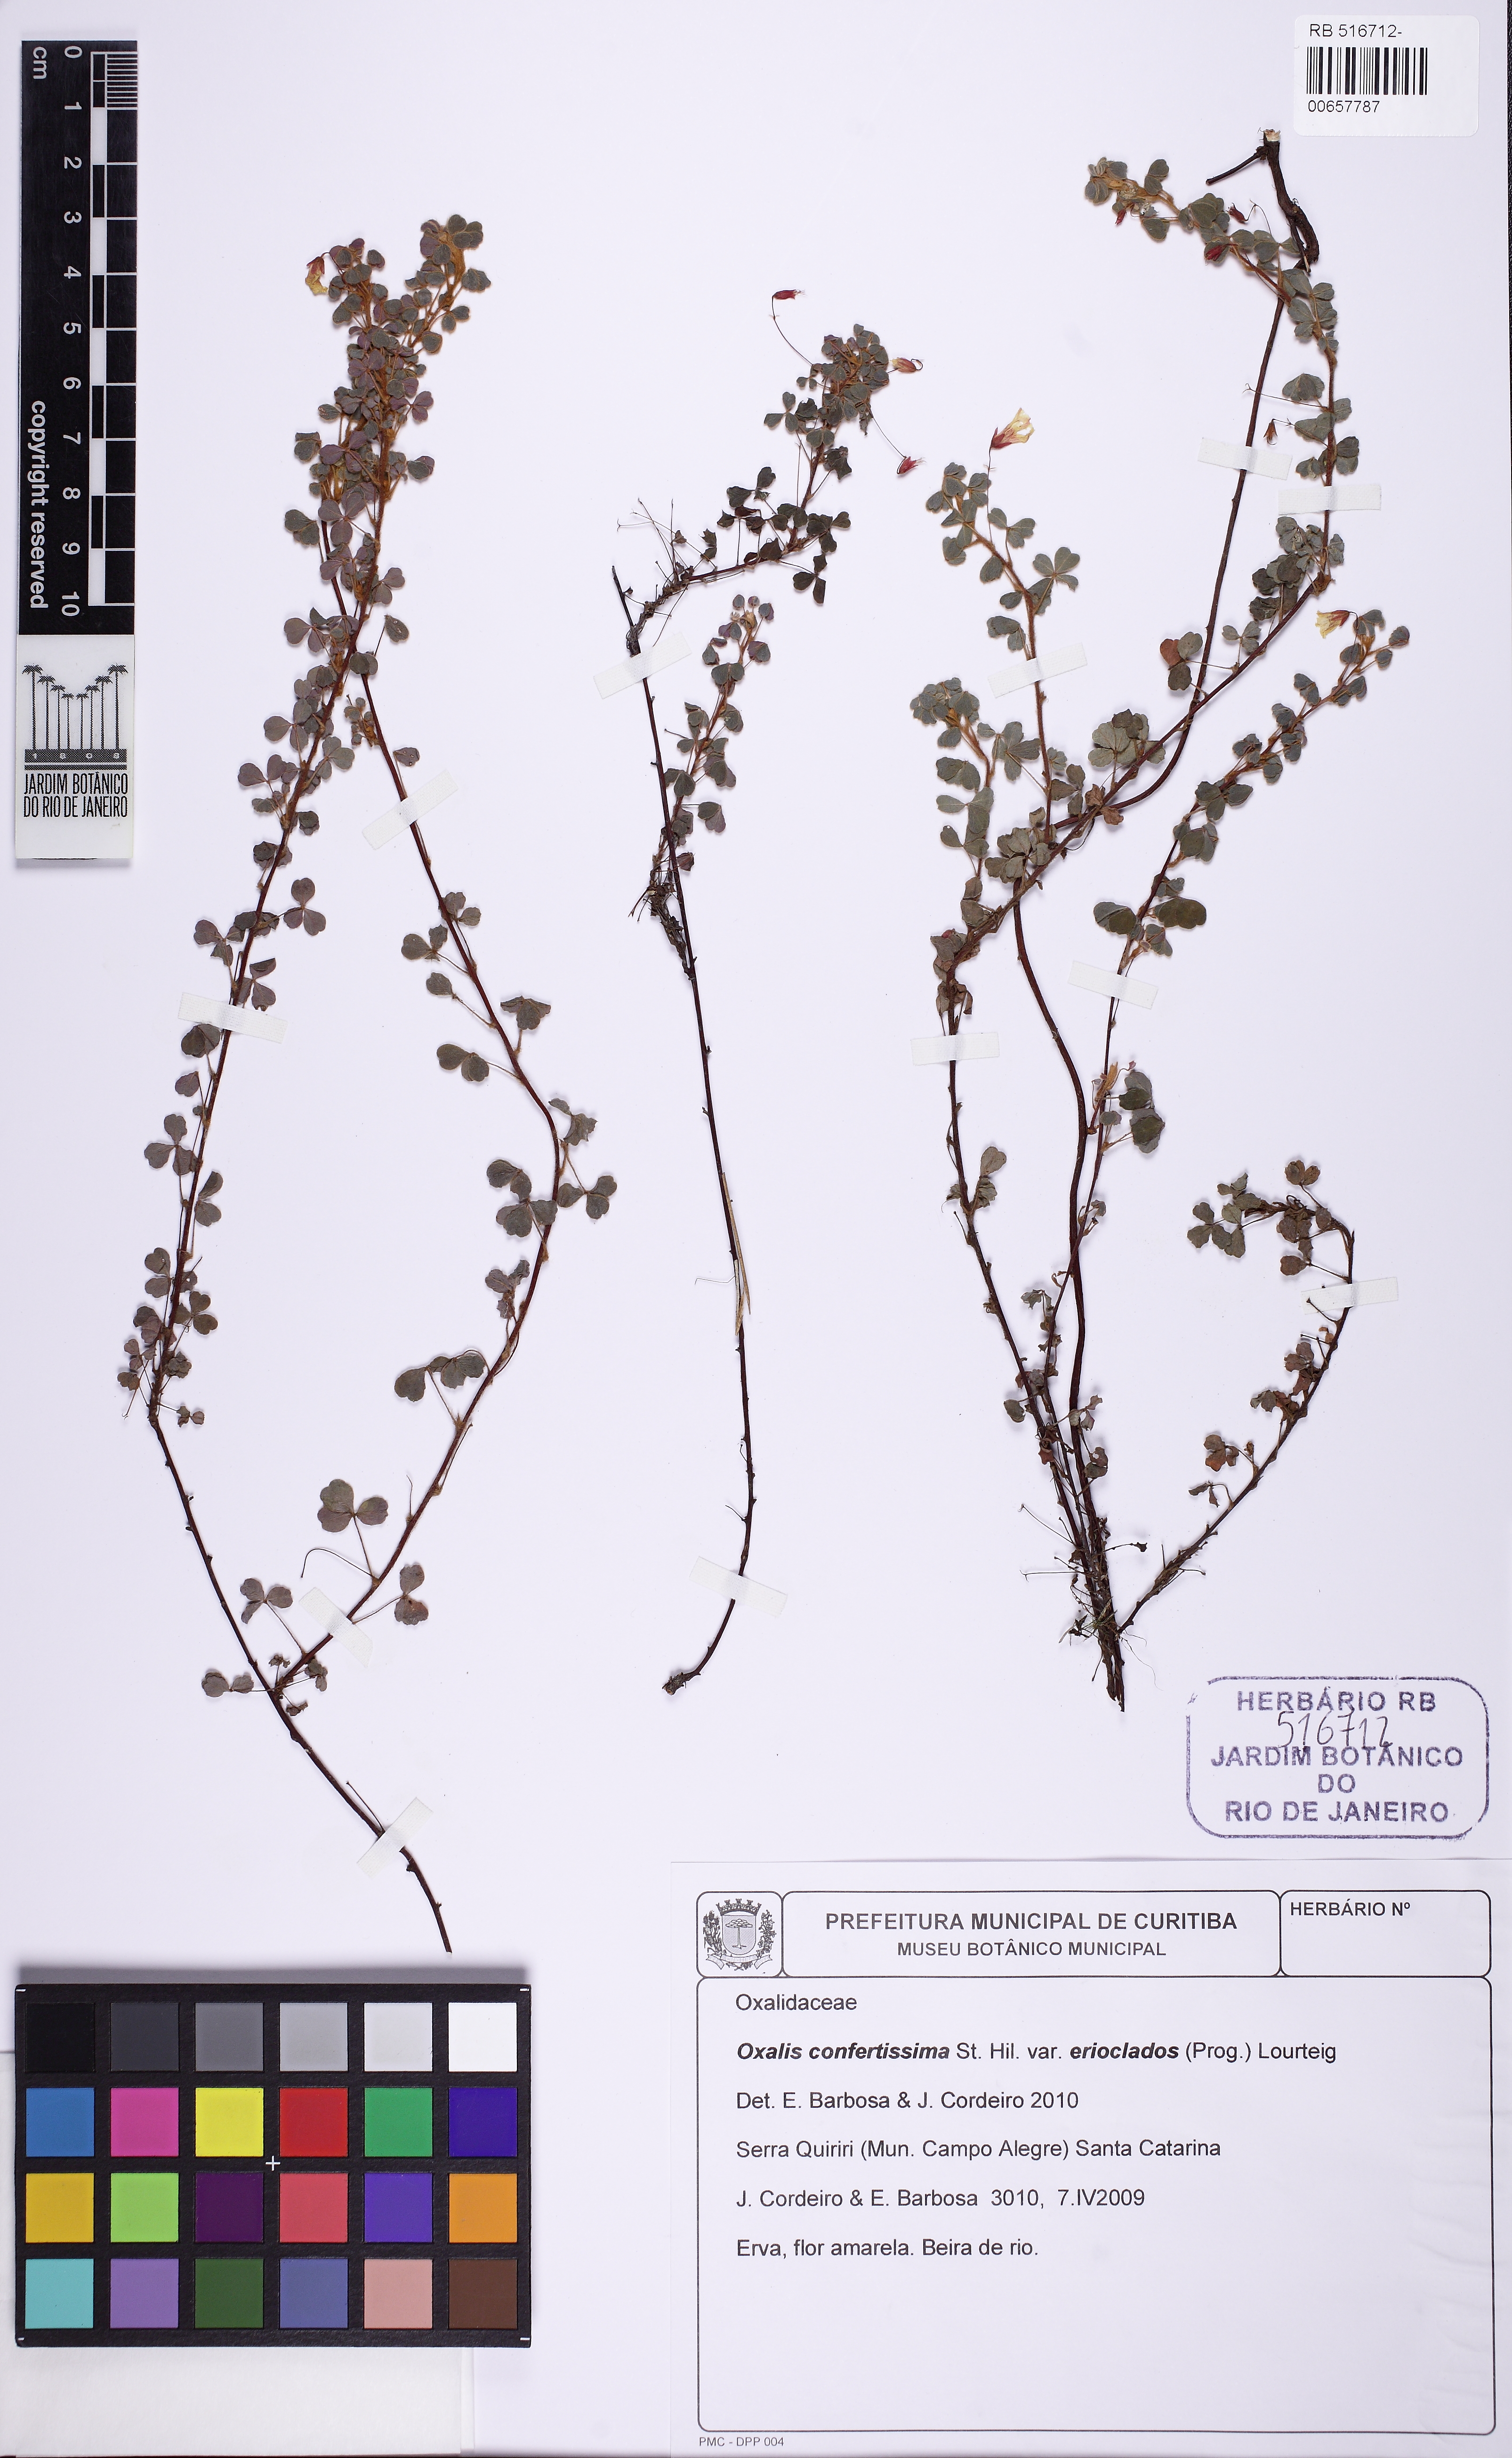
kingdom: Plantae
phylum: Tracheophyta
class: Magnoliopsida
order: Oxalidales
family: Oxalidaceae
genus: Oxalis
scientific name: Oxalis confertissima
